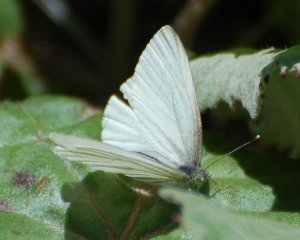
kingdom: Animalia
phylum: Arthropoda
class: Insecta
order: Lepidoptera
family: Pieridae
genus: Pieris
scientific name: Pieris oleracea
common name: Mustard White
